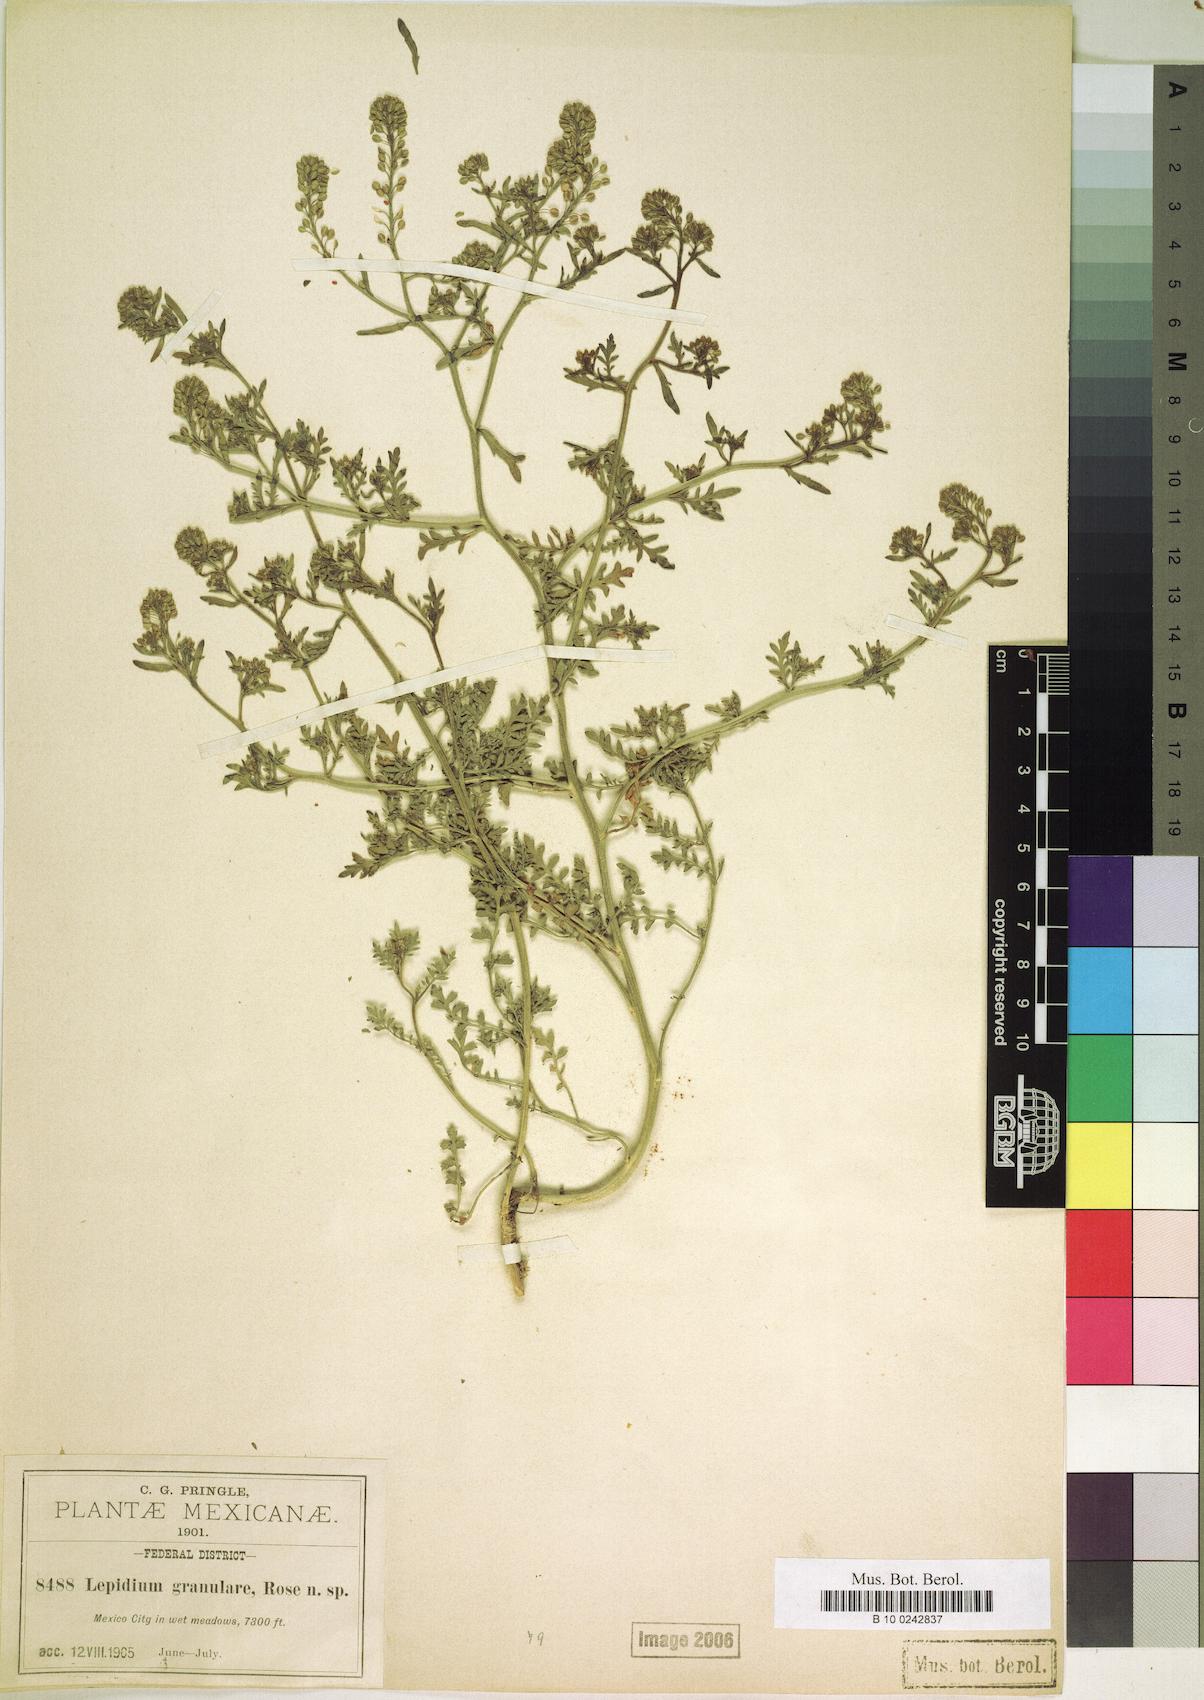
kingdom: Plantae
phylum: Tracheophyta
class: Magnoliopsida
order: Brassicales
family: Brassicaceae
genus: Lepidium
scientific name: Lepidium sordidum
